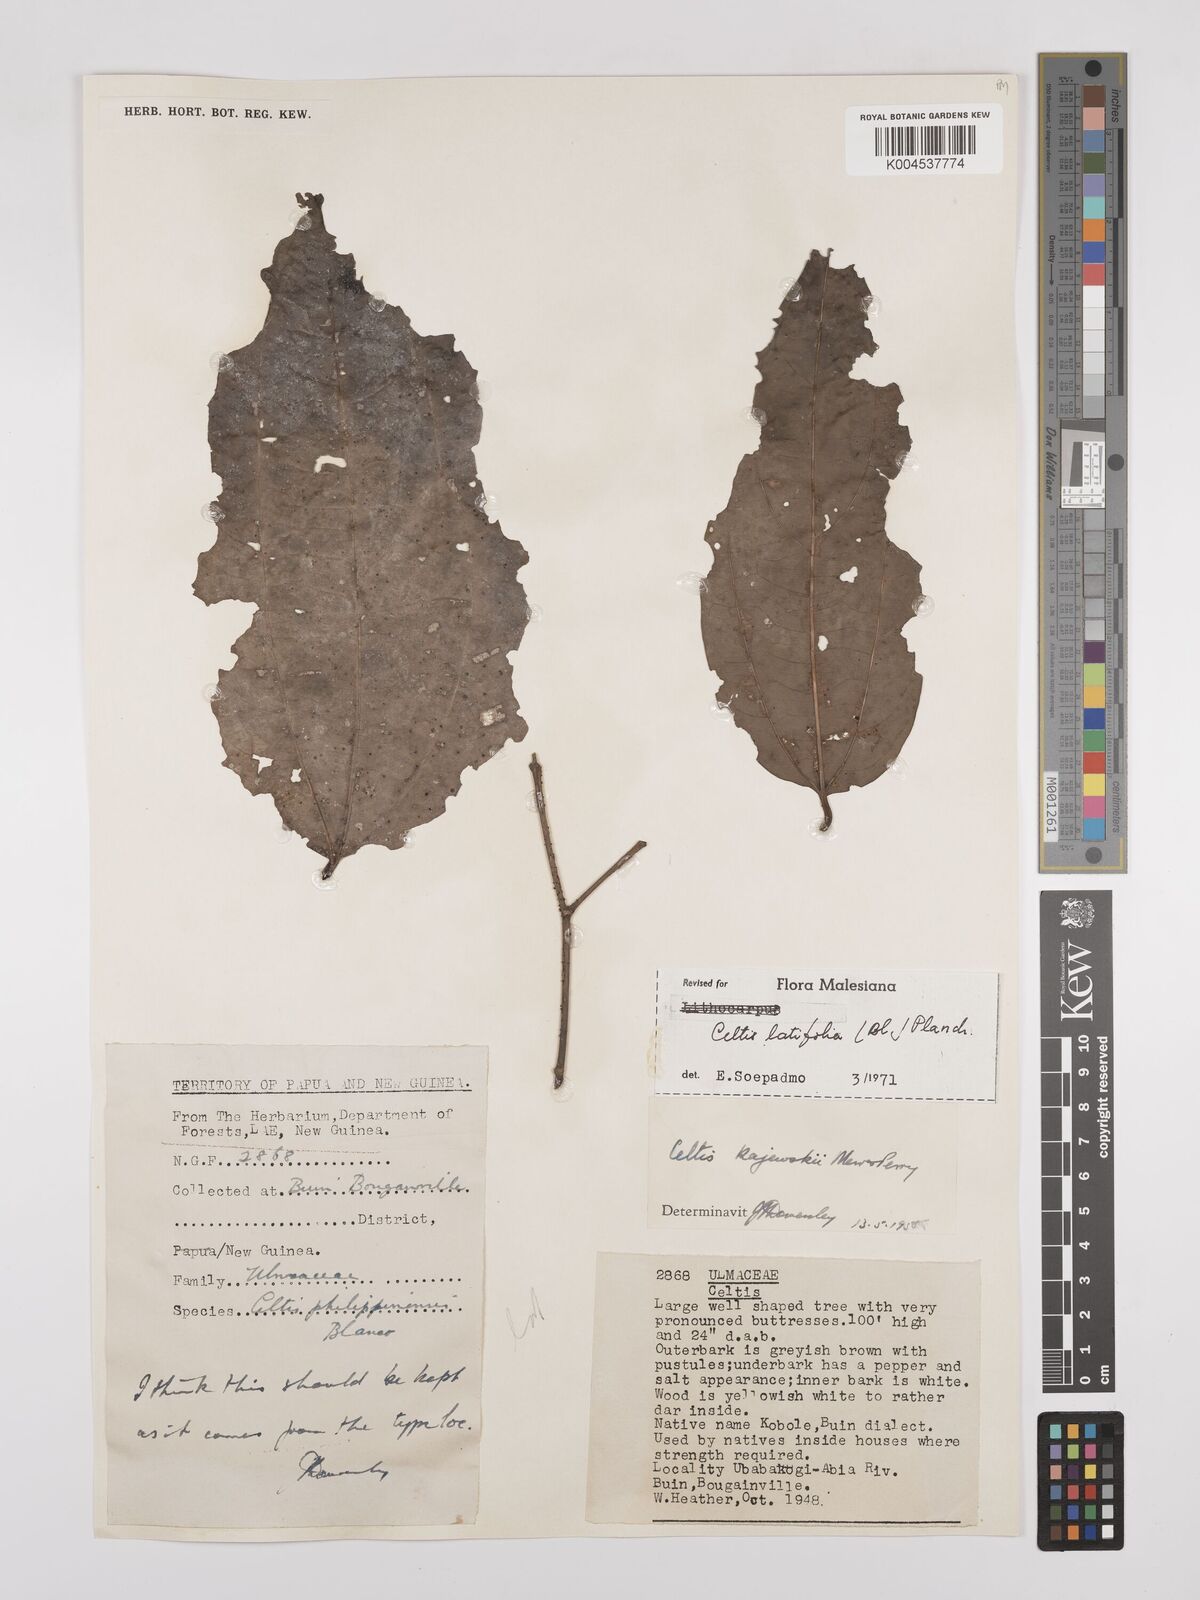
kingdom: Plantae
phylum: Tracheophyta
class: Magnoliopsida
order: Rosales
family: Cannabaceae
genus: Celtis
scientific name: Celtis latifolia
